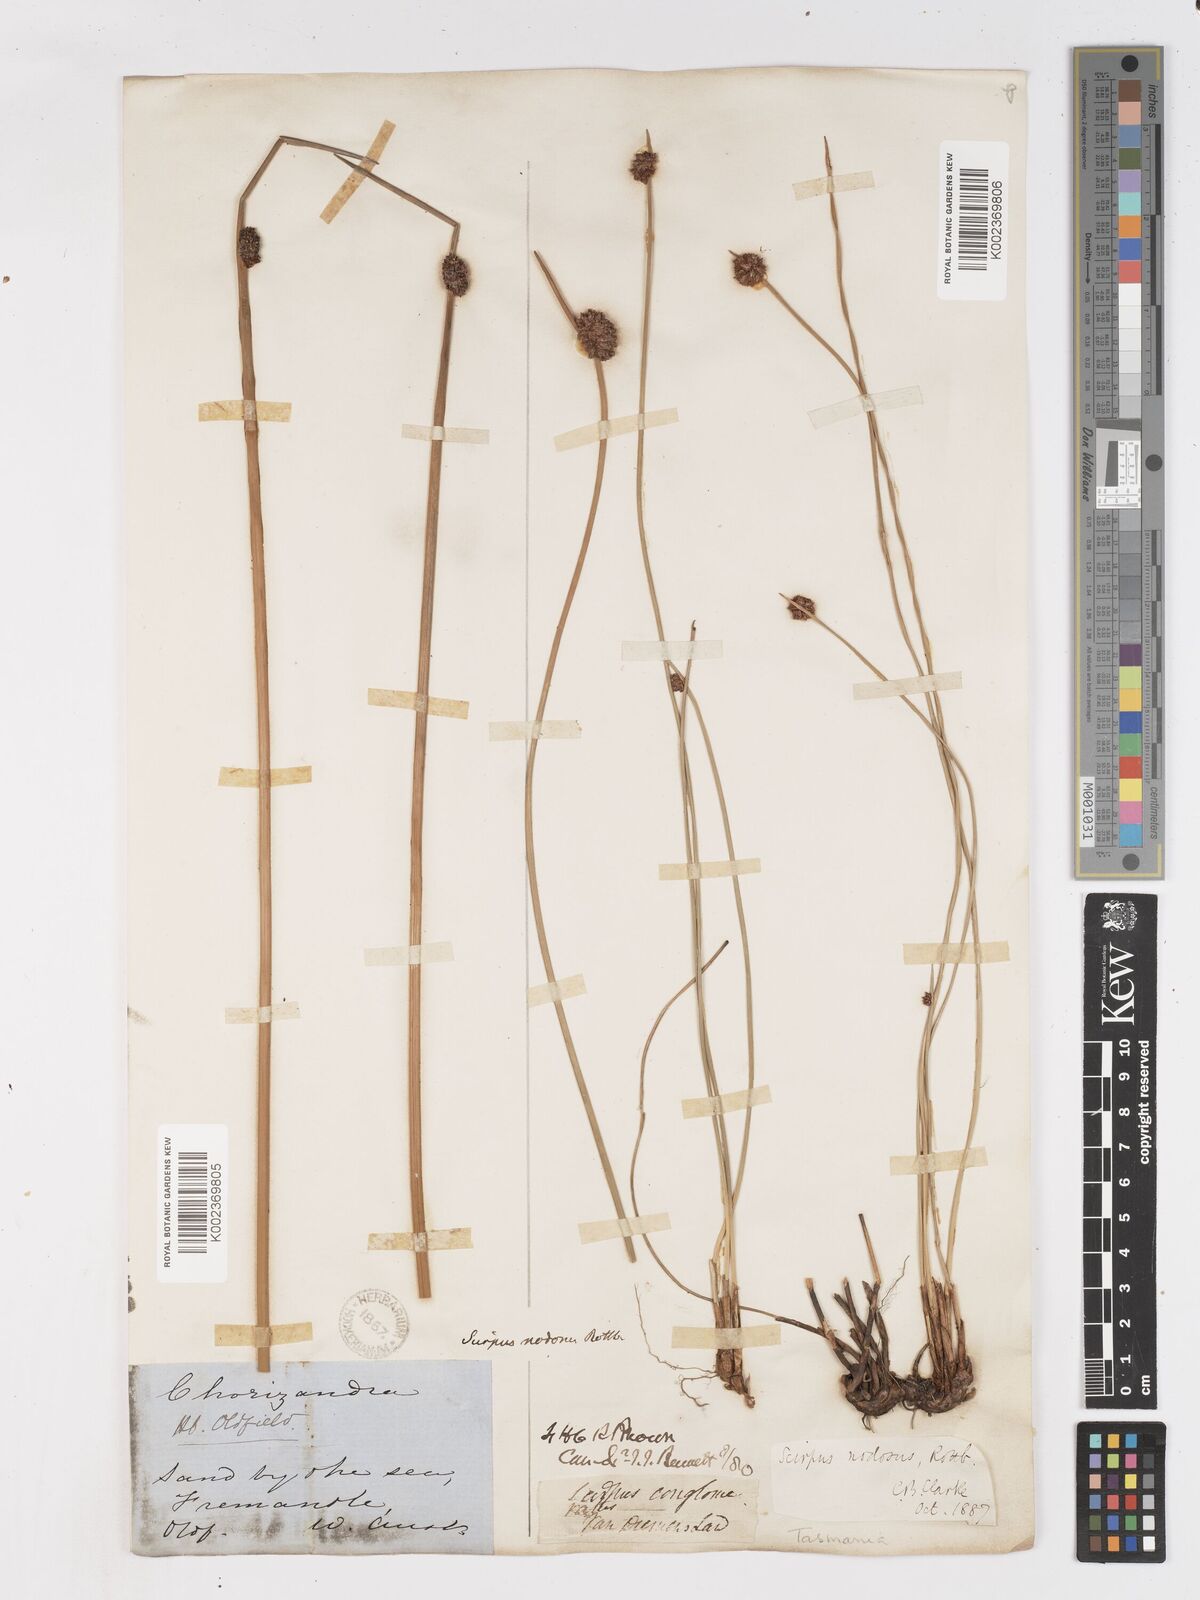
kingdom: Plantae
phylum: Tracheophyta
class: Liliopsida
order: Poales
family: Cyperaceae
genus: Ficinia
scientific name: Ficinia nodosa
